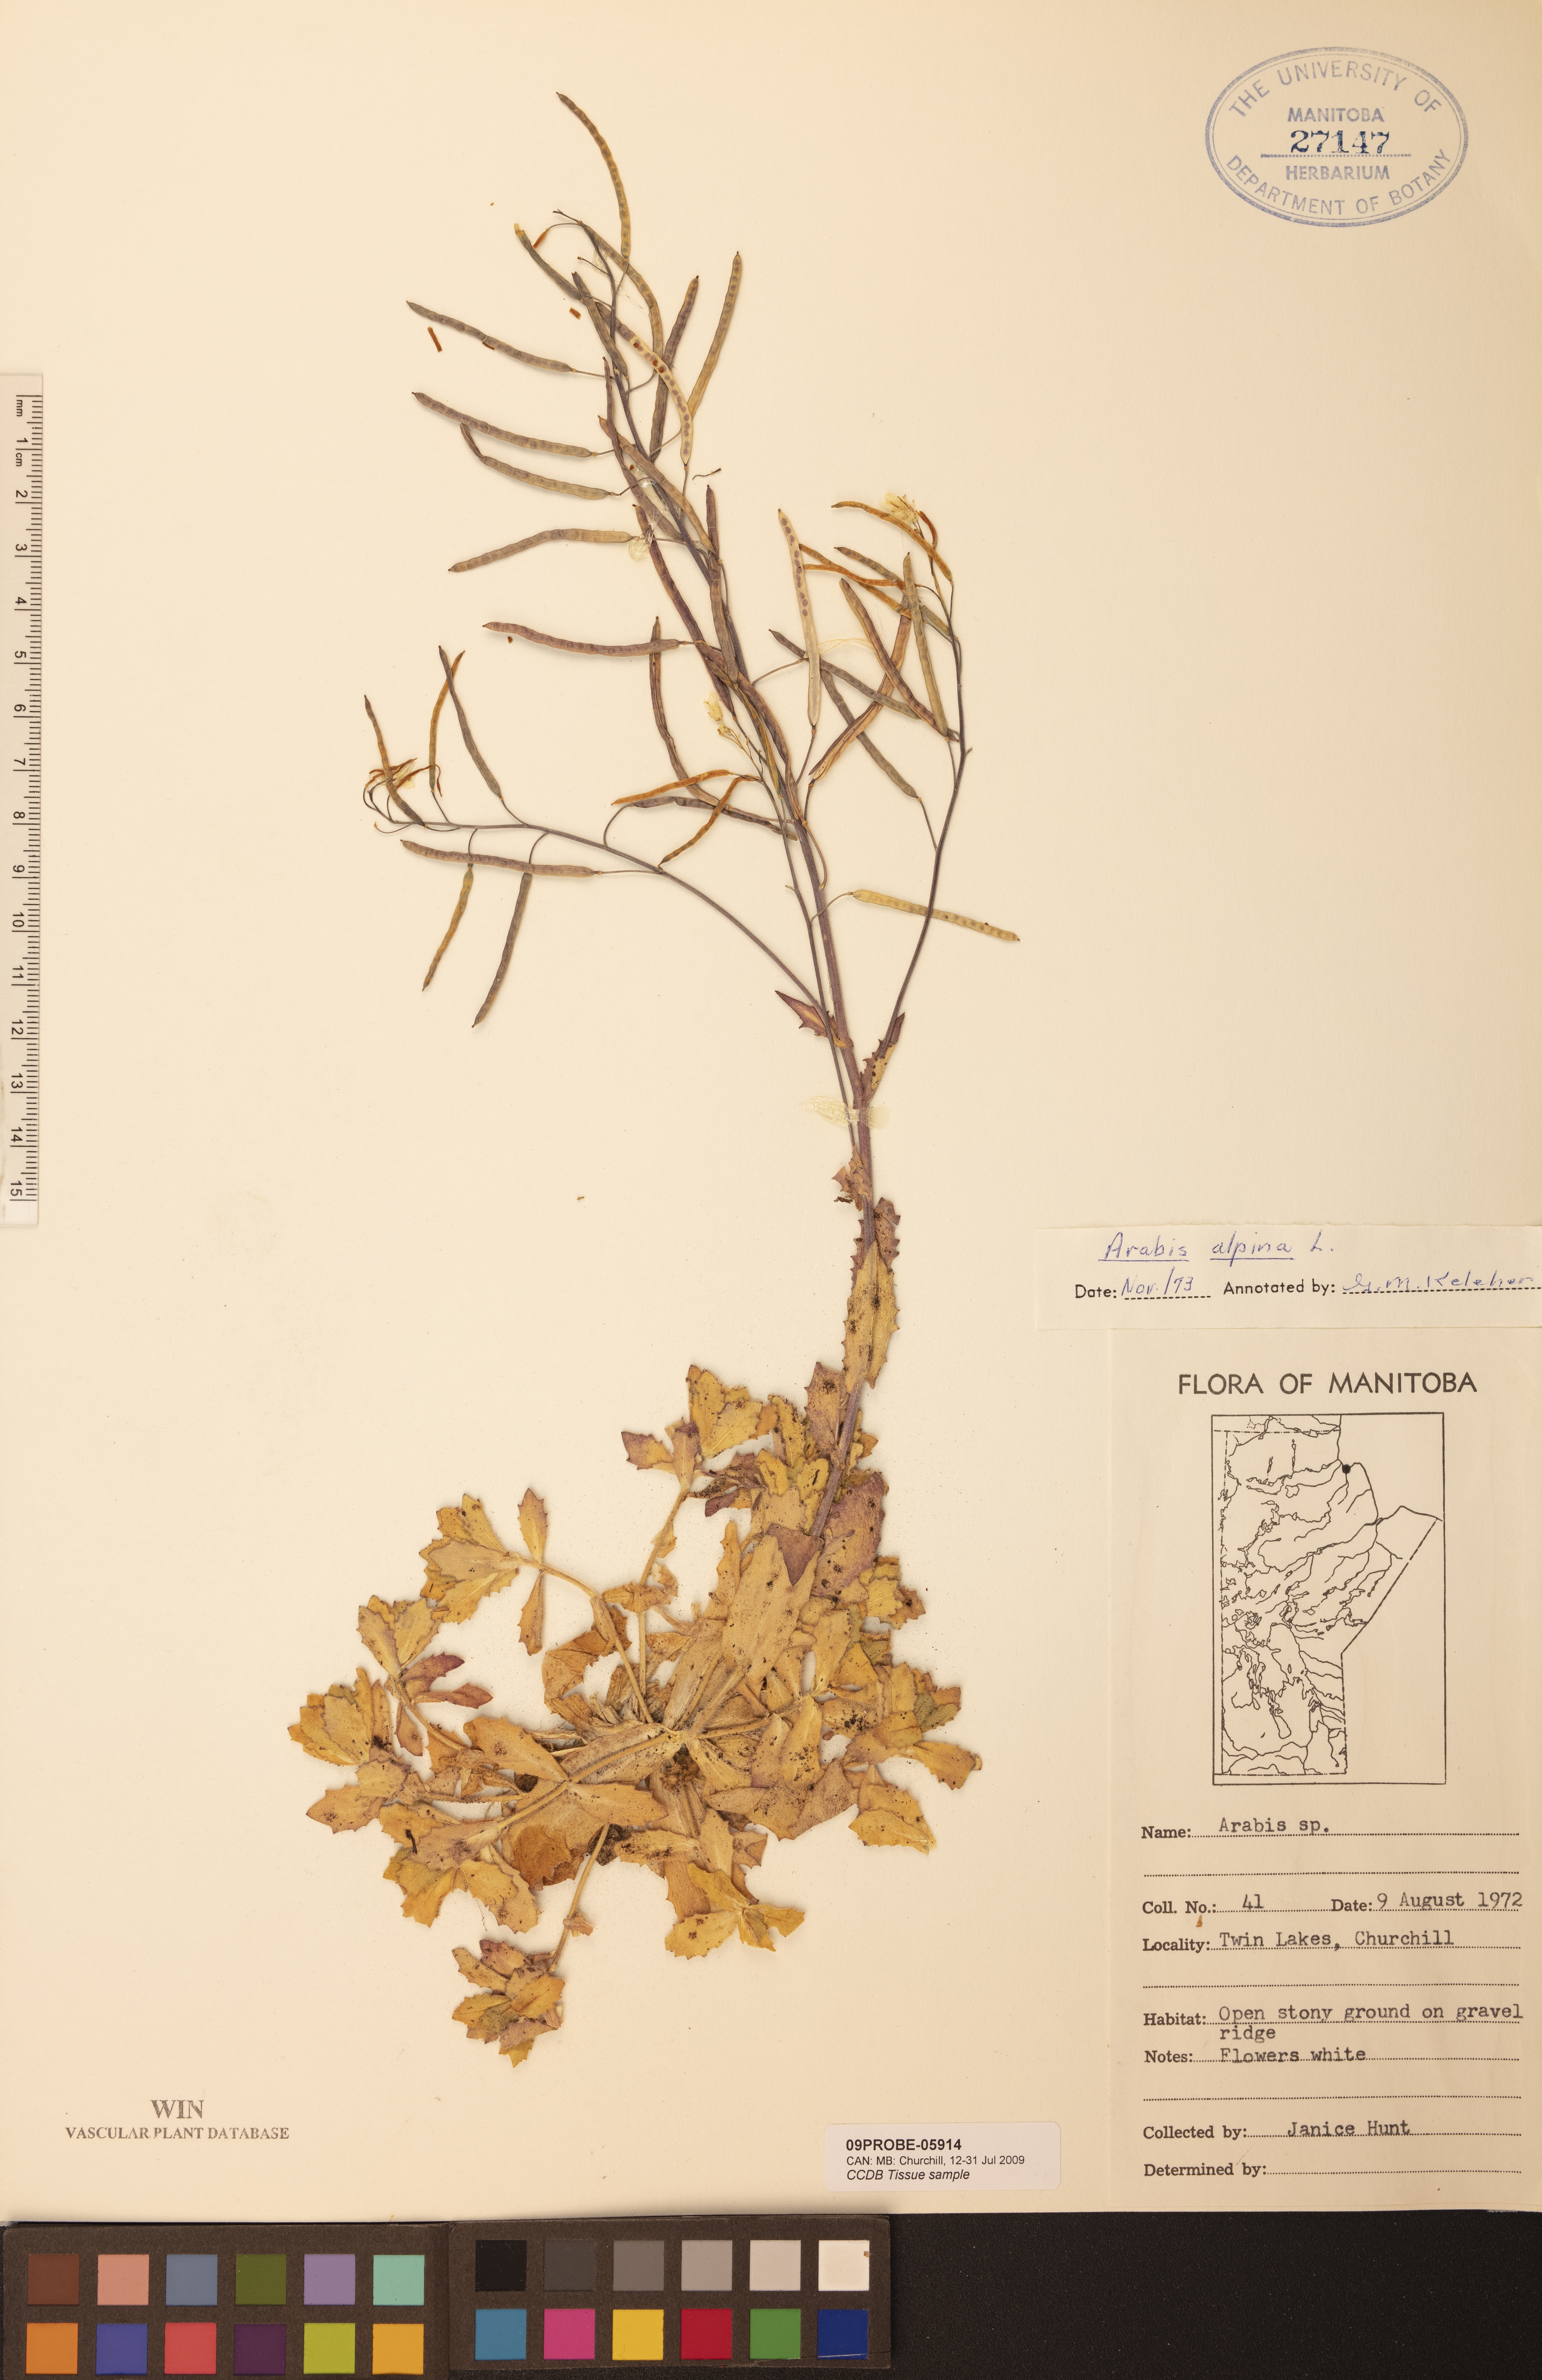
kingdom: Plantae
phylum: Tracheophyta
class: Magnoliopsida
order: Brassicales
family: Brassicaceae
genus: Arabis
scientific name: Arabis alpina
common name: Alpine rock-cress
